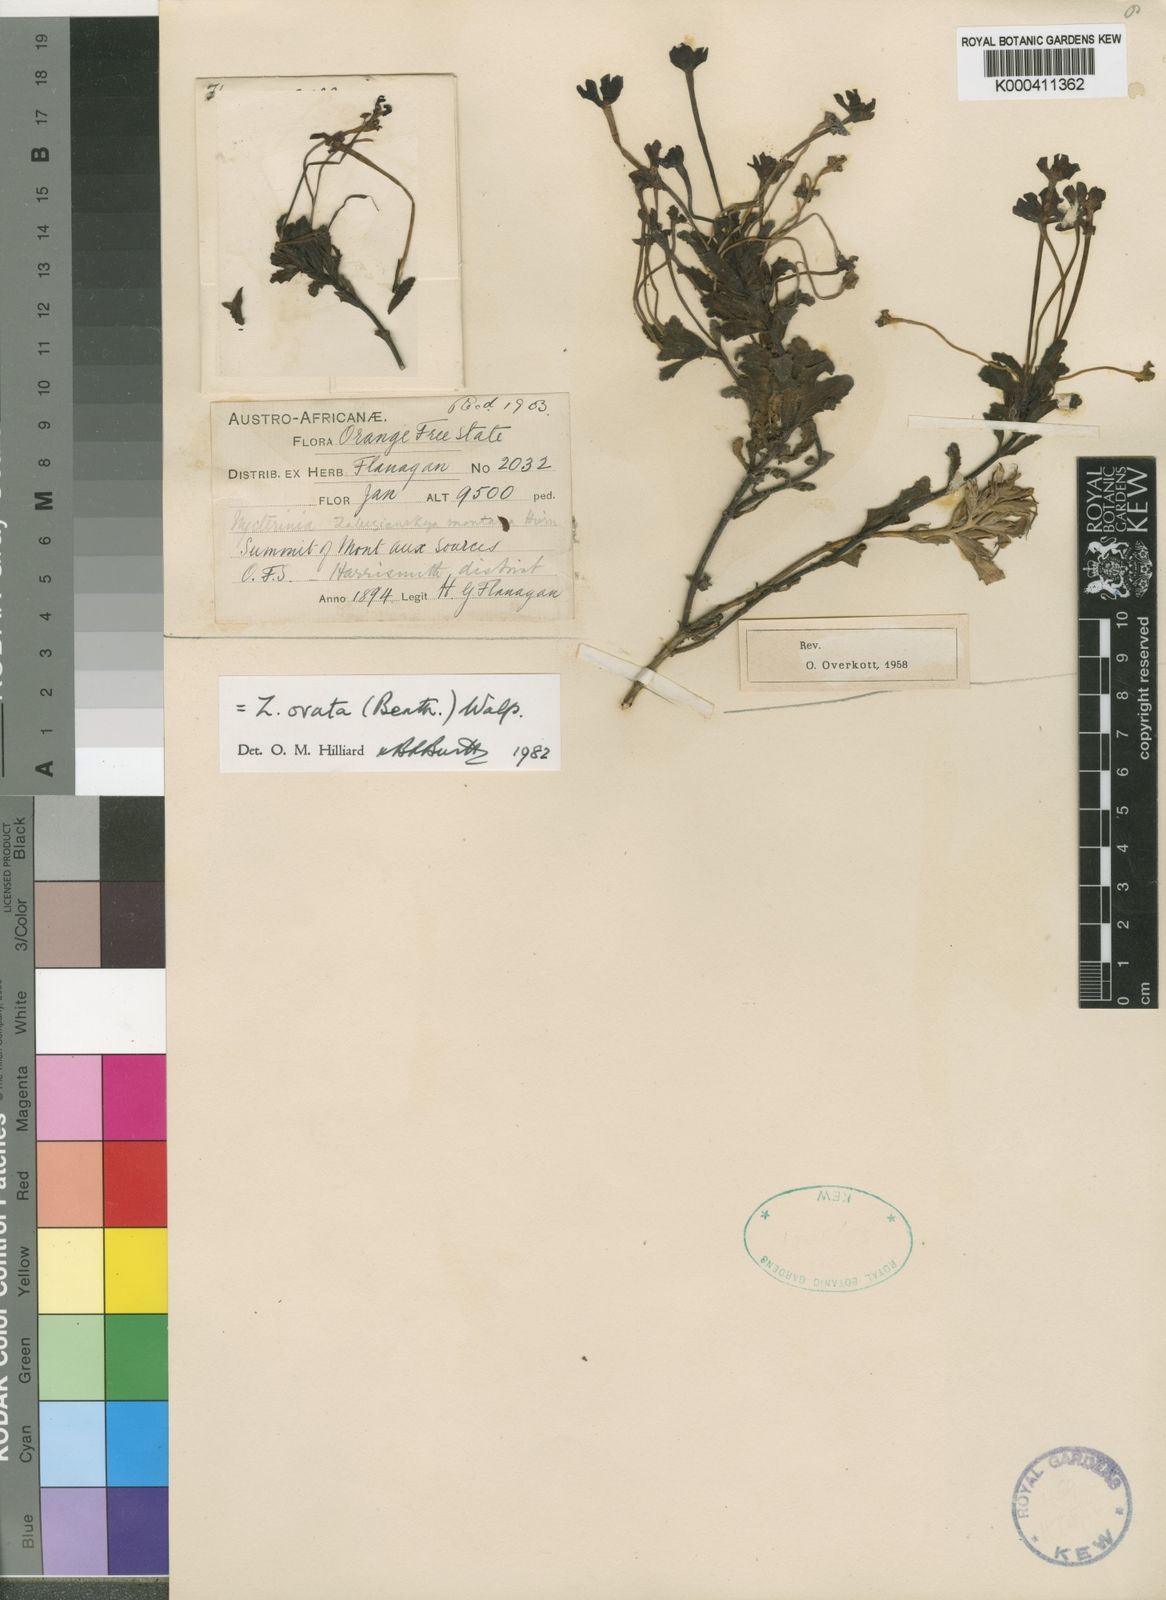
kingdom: Plantae
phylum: Tracheophyta
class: Magnoliopsida
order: Lamiales
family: Scrophulariaceae
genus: Zaluzianskya
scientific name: Zaluzianskya ovata
